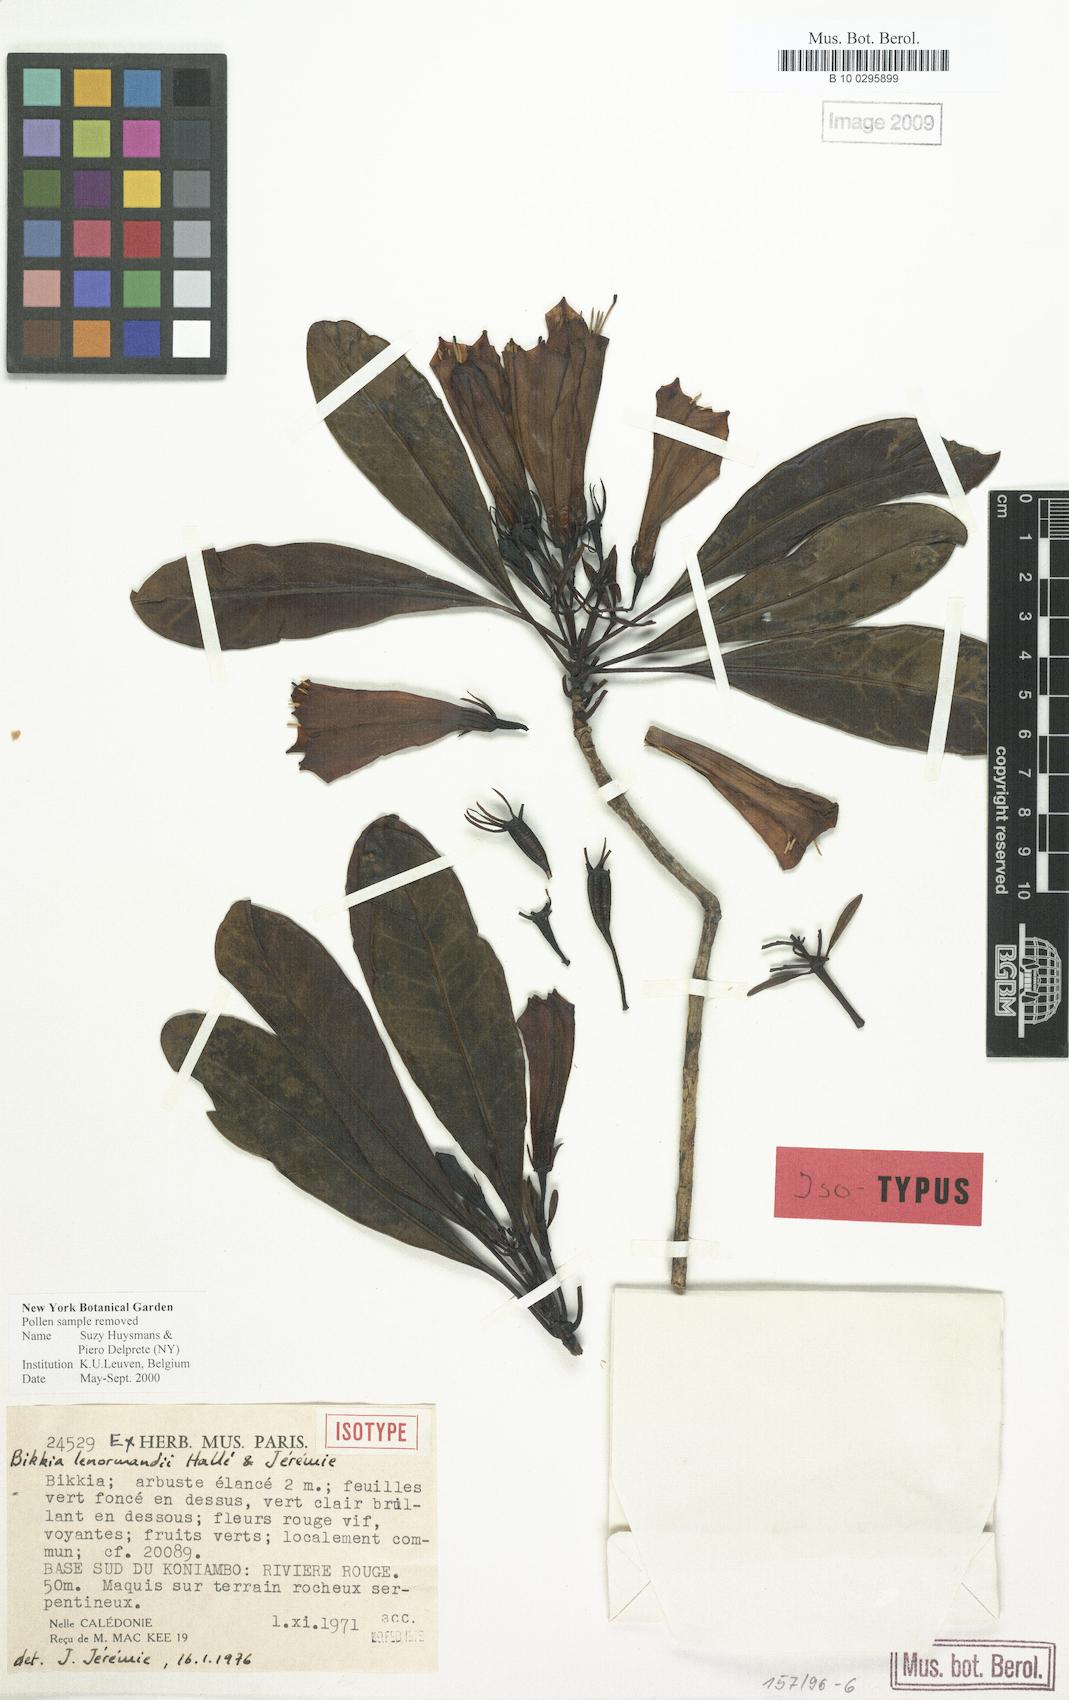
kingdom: Plantae
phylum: Tracheophyta
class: Magnoliopsida
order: Gentianales
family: Rubiaceae
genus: Thiollierea
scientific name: Thiollierea lenormandii
